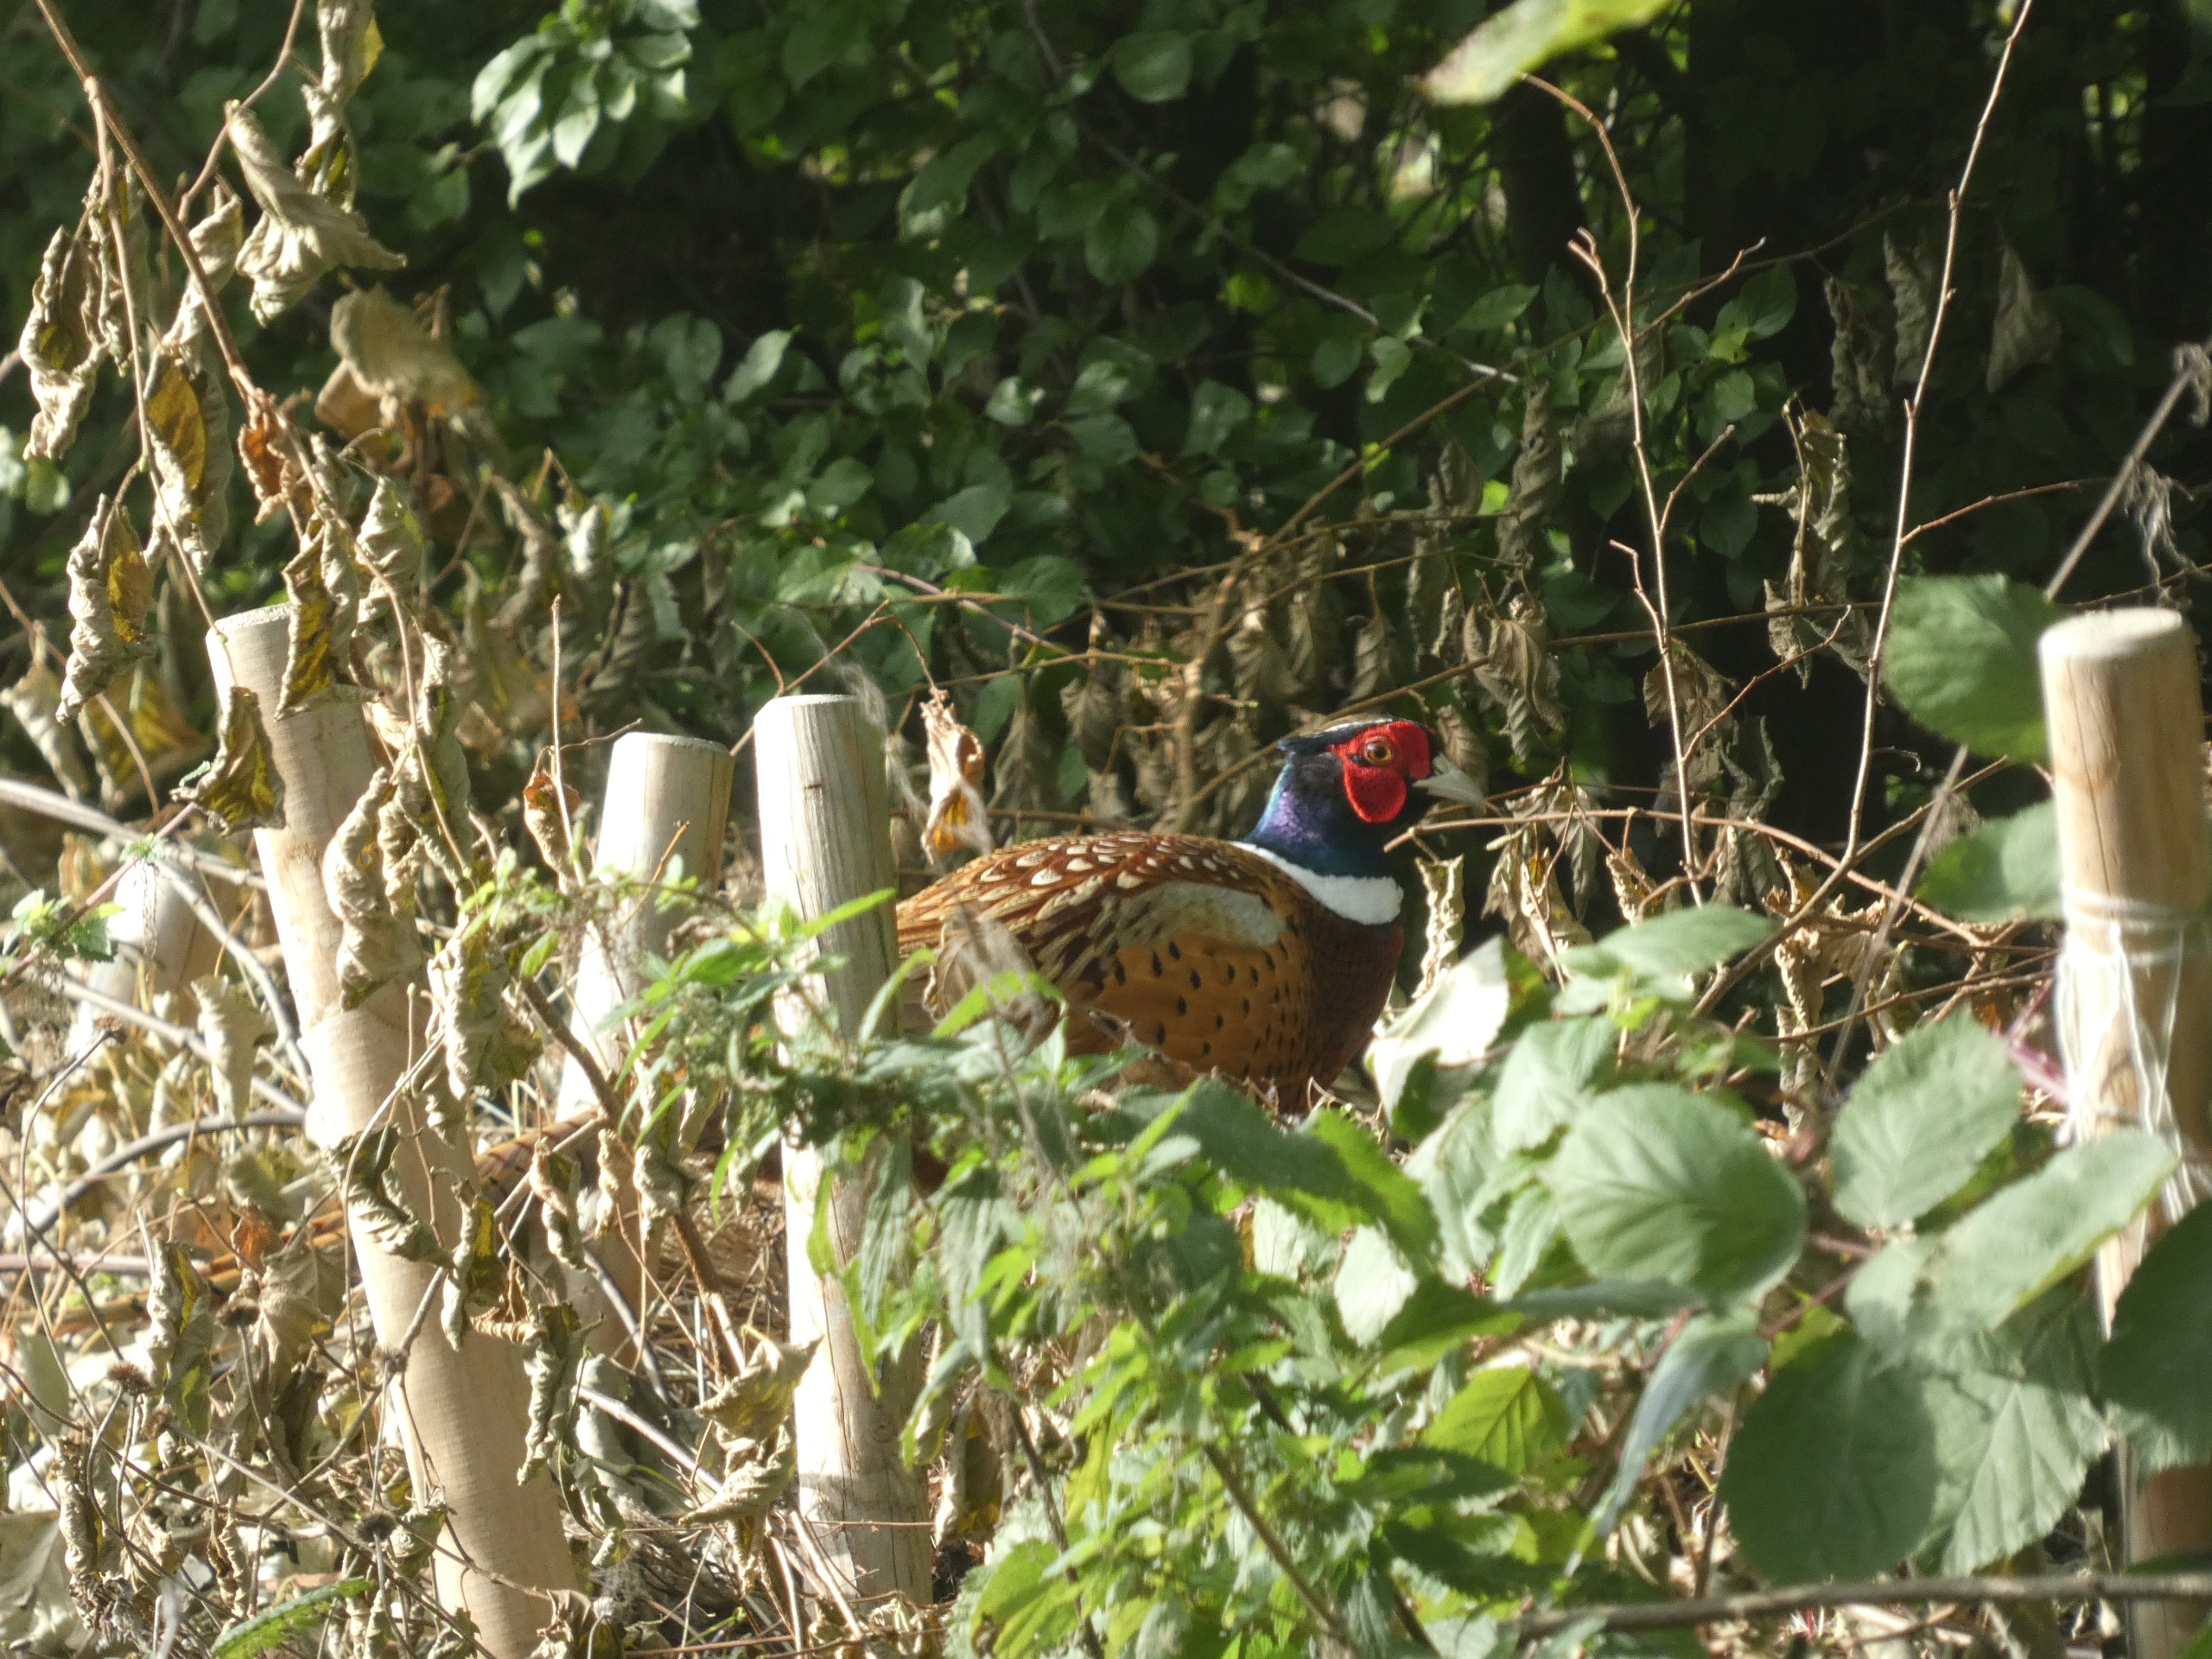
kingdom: Animalia
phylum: Chordata
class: Aves
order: Galliformes
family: Phasianidae
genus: Phasianus
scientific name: Phasianus colchicus
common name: Fasan
